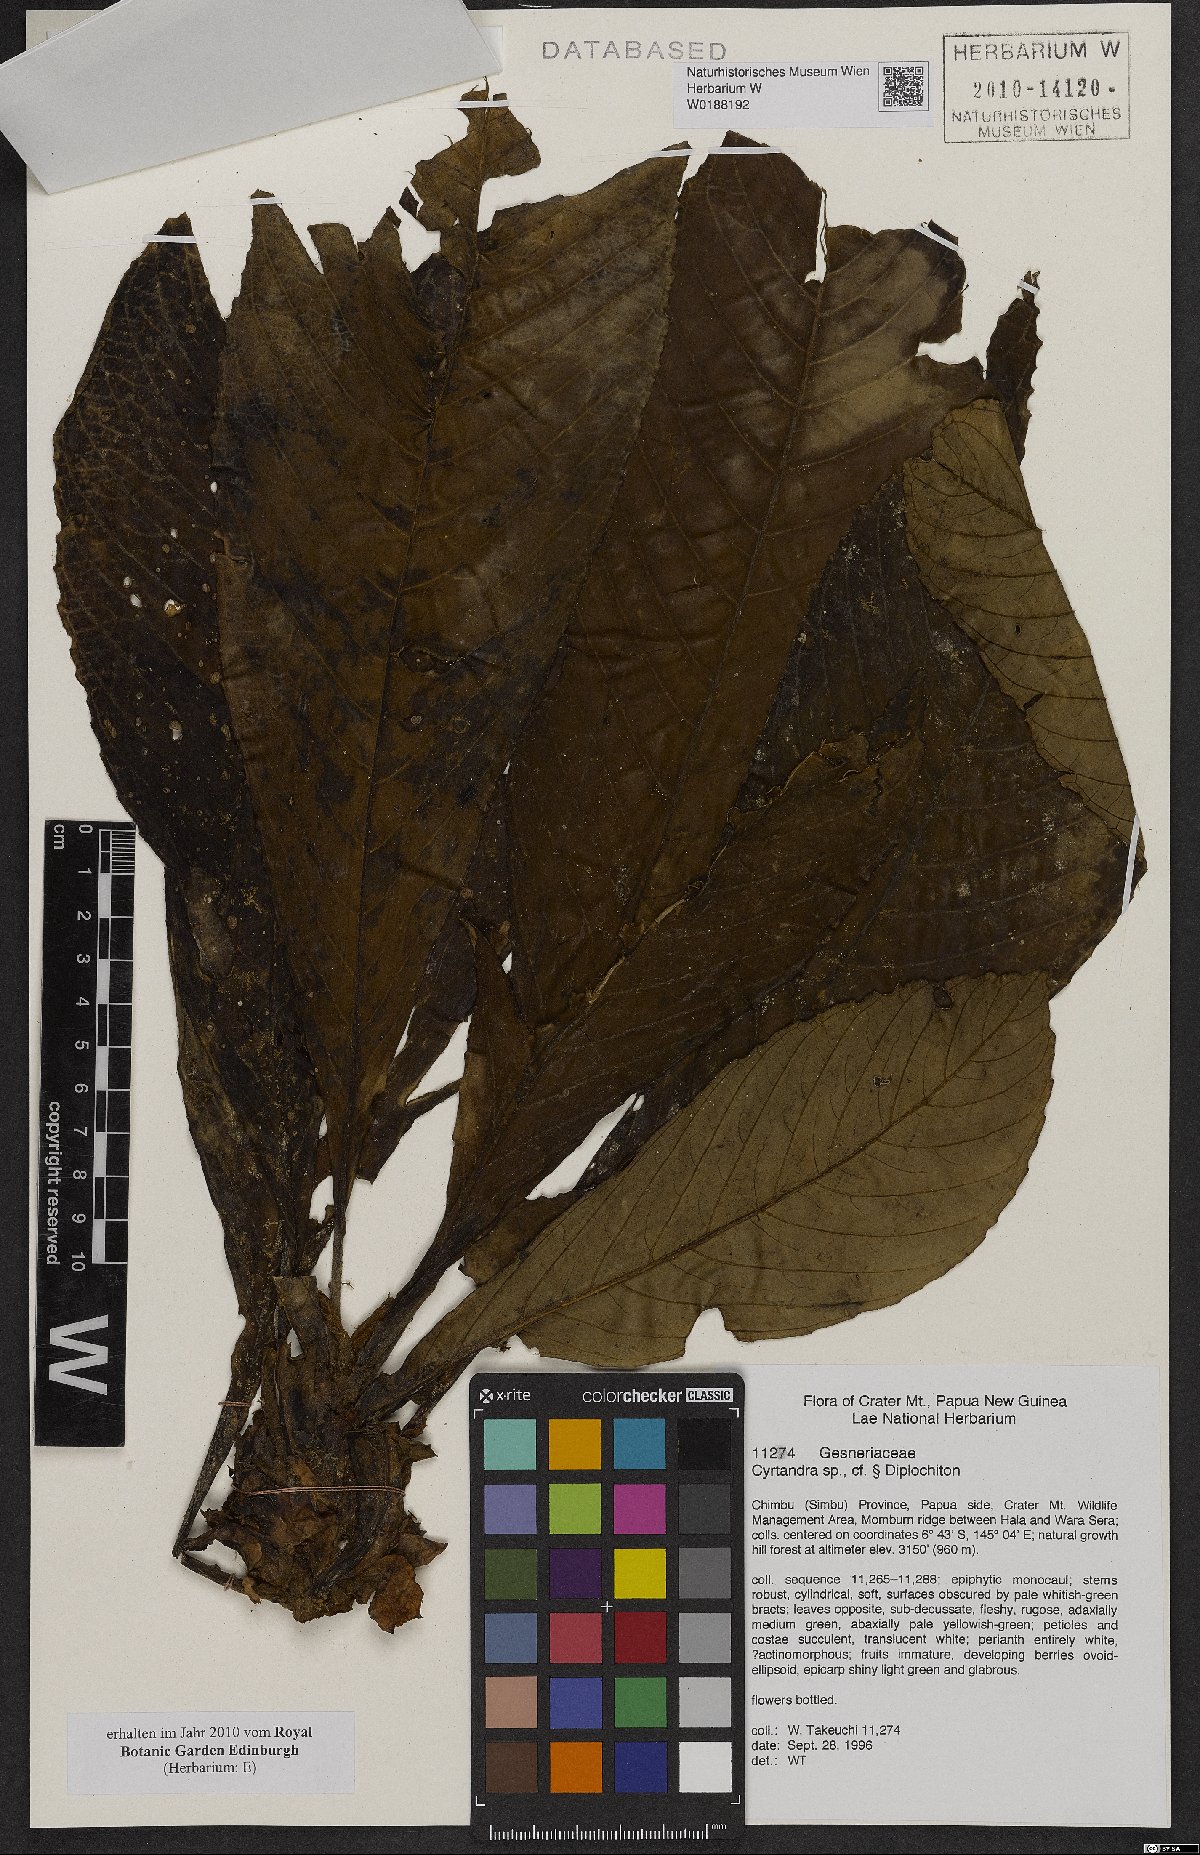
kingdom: Plantae
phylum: Tracheophyta
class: Magnoliopsida
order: Lamiales
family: Gesneriaceae
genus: Cyrtandra
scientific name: Cyrtandra
